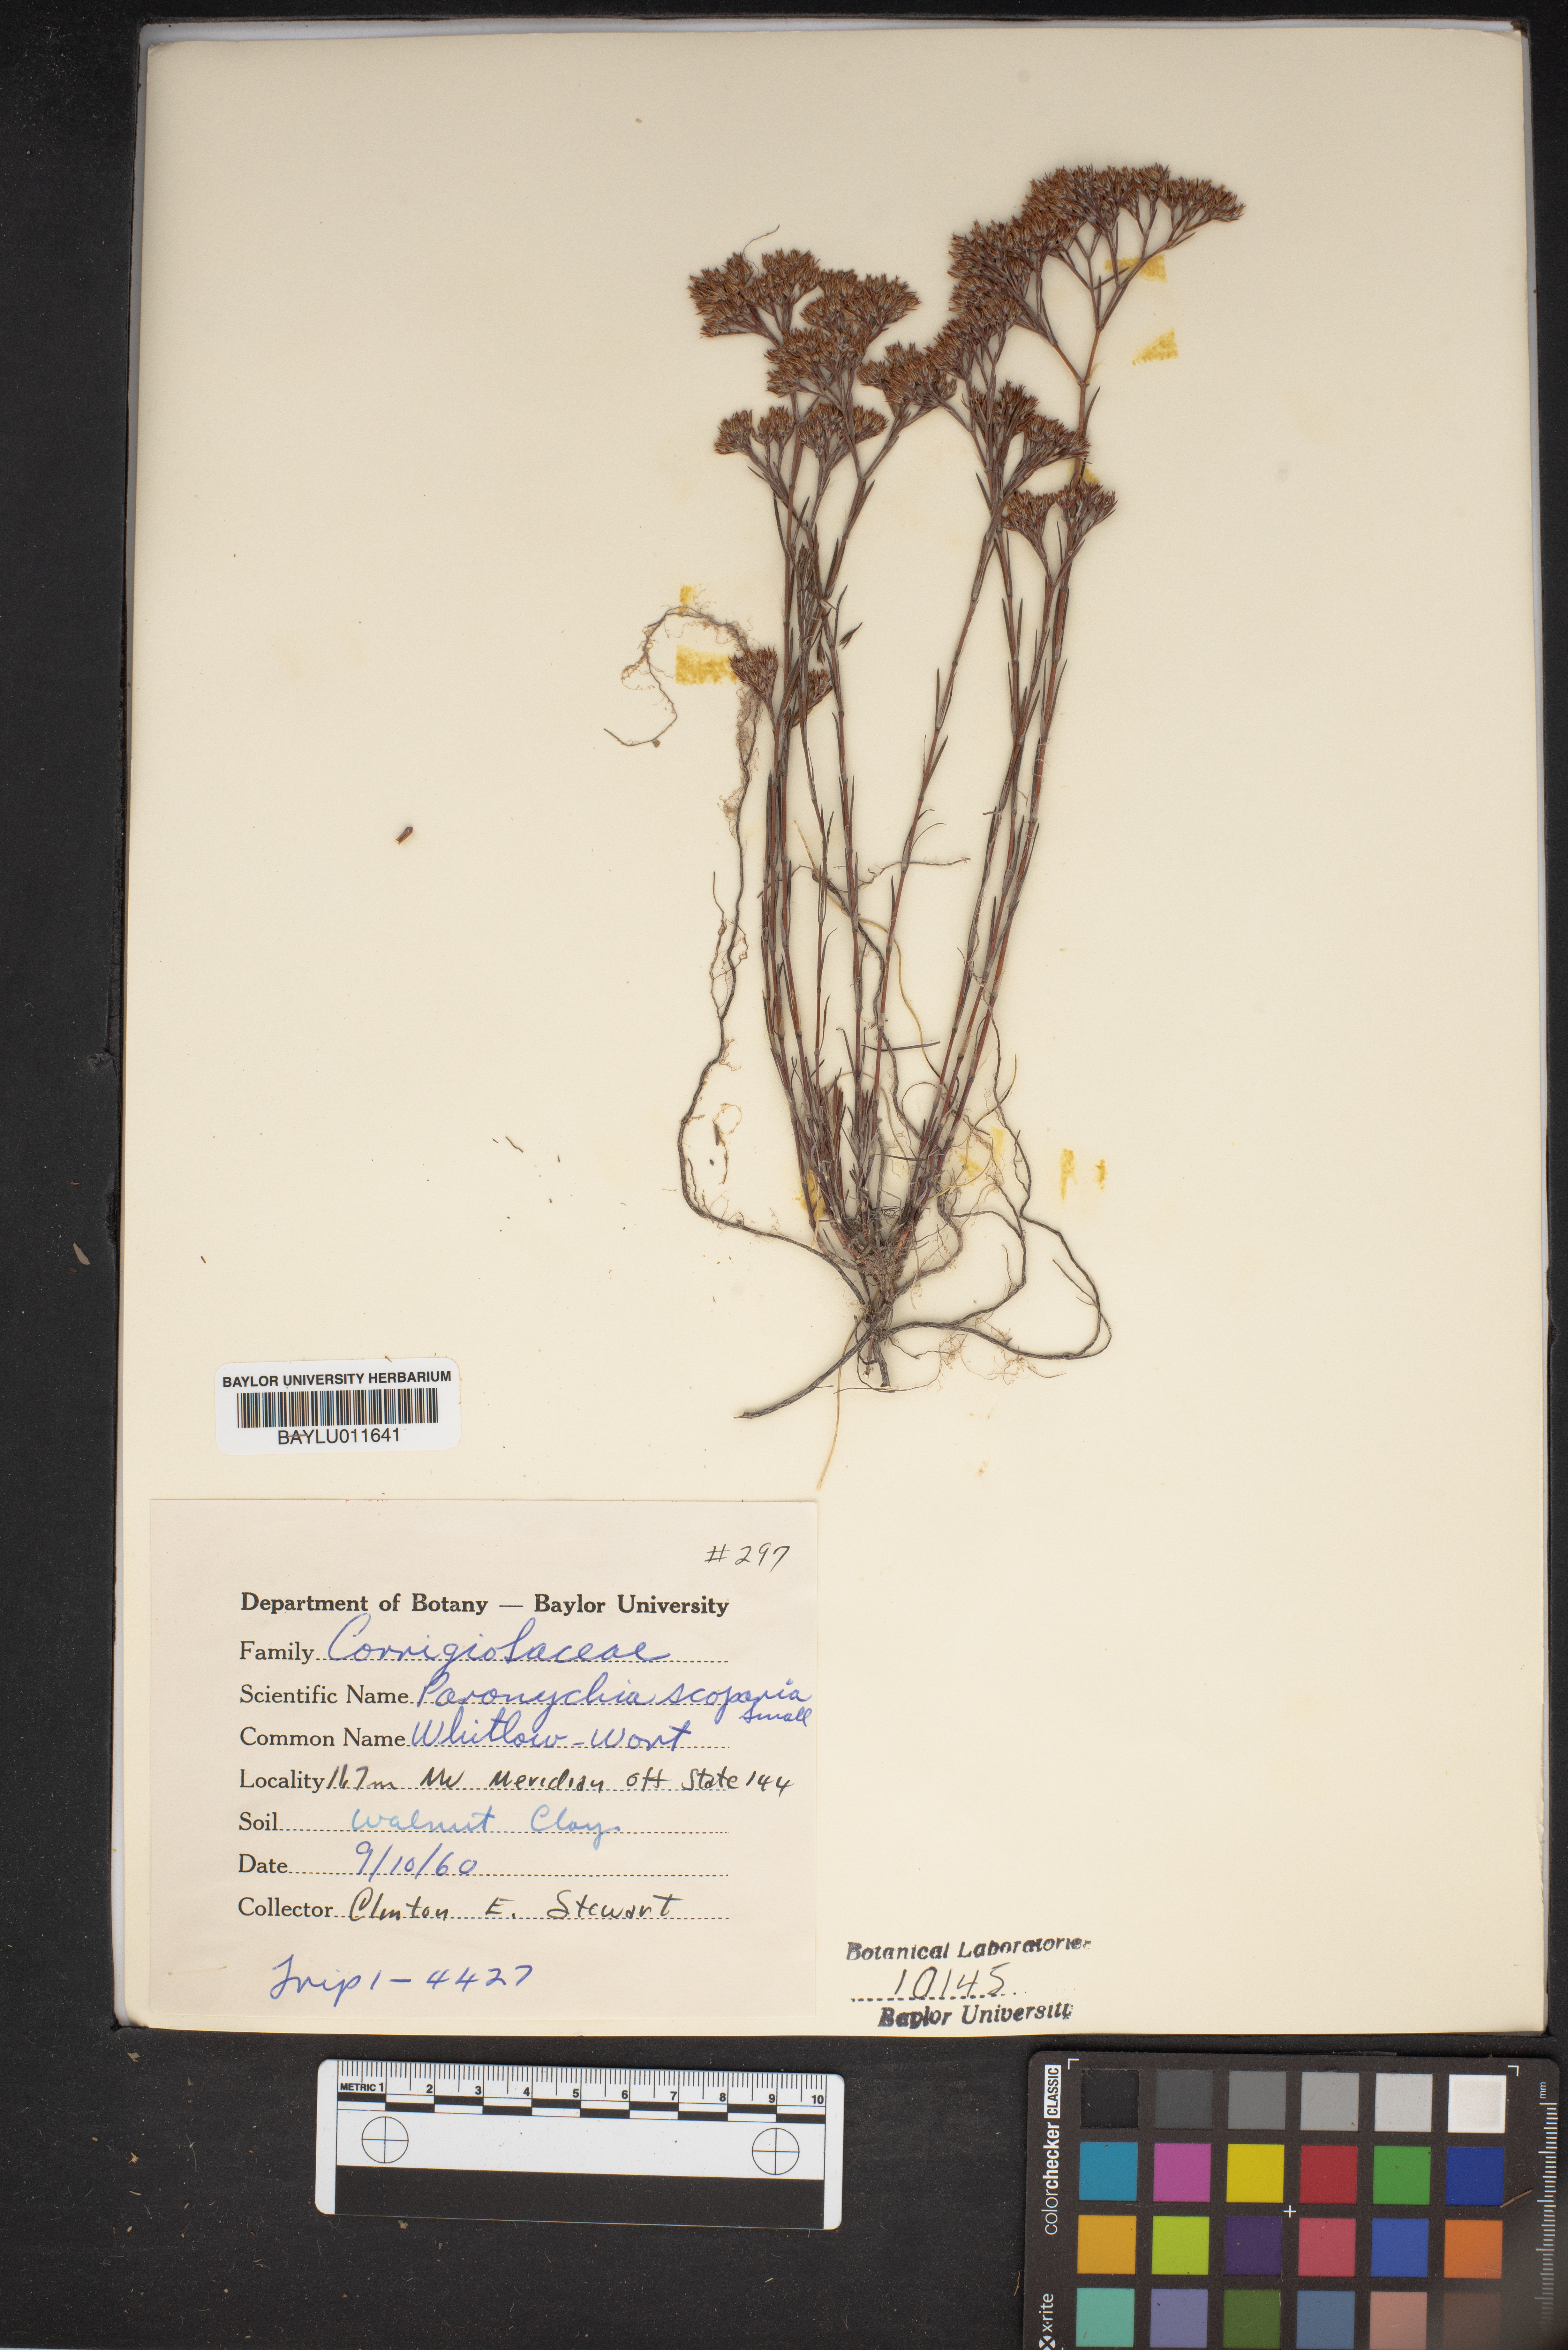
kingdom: Plantae
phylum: Tracheophyta
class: Magnoliopsida
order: Caryophyllales
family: Caryophyllaceae
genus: Paronychia
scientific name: Paronychia virginica
